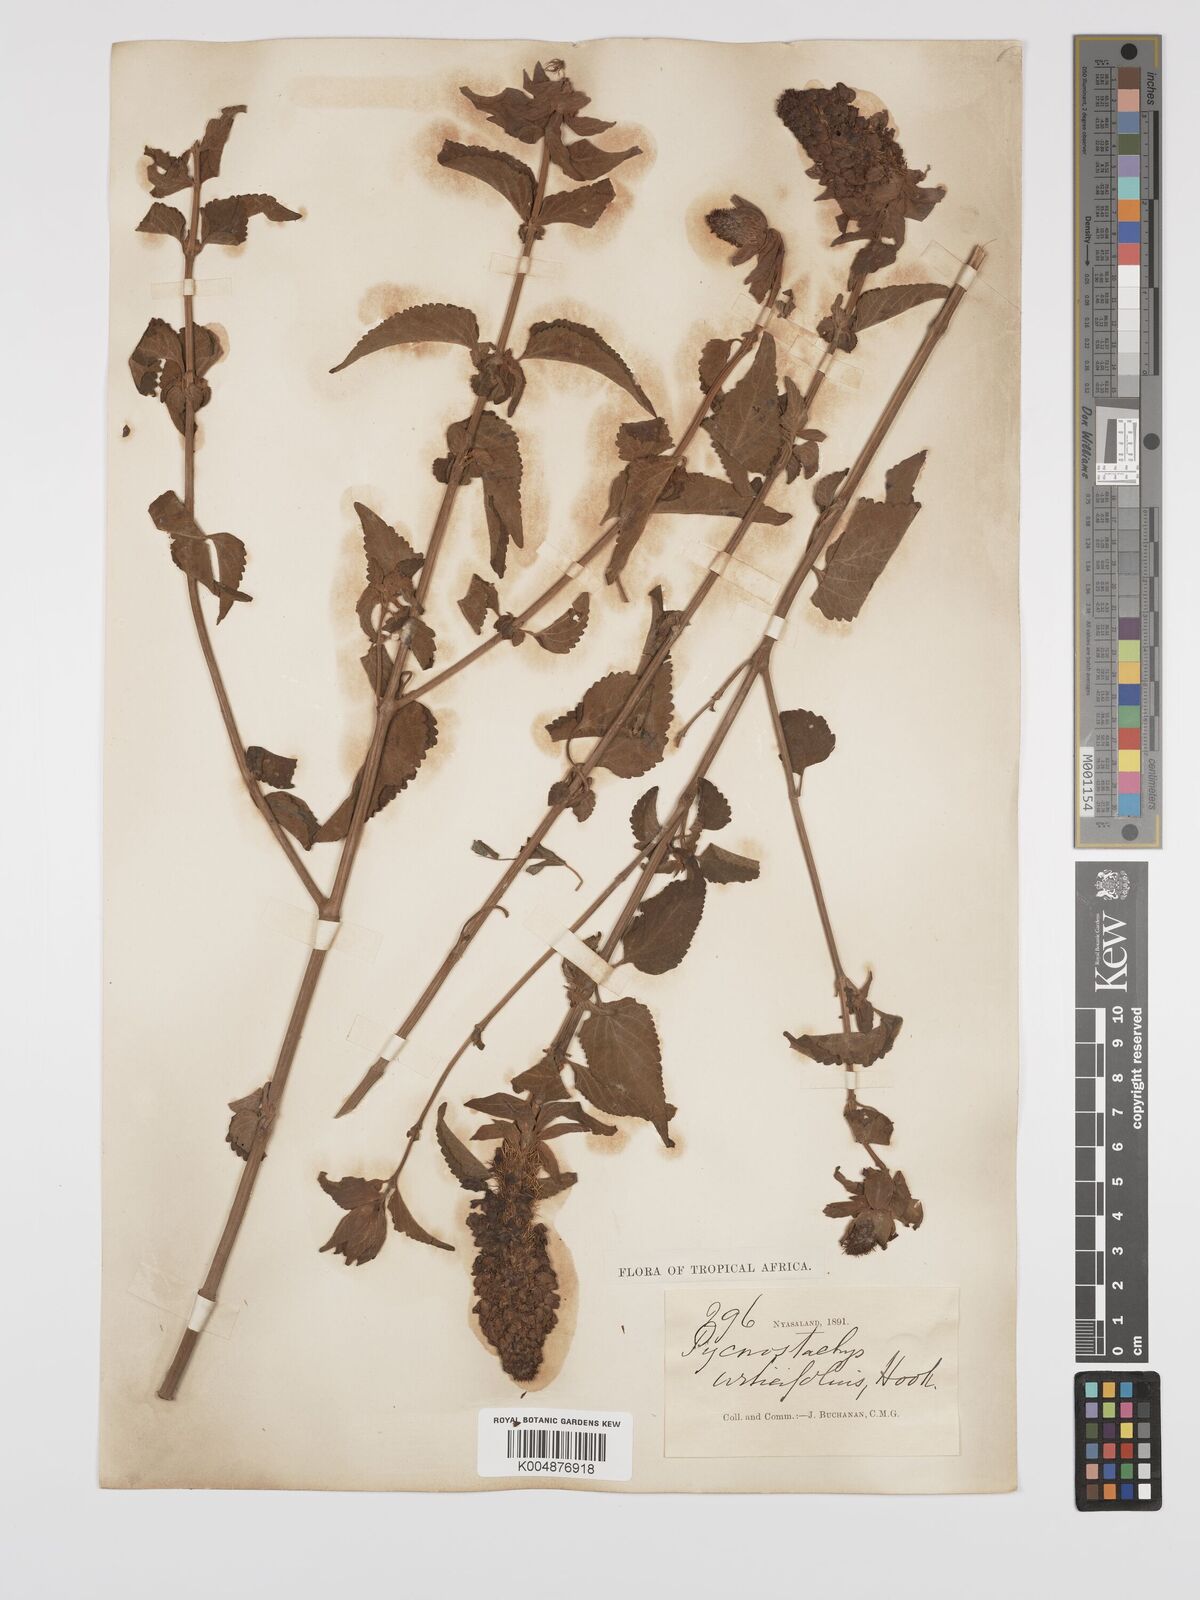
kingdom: Plantae
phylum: Tracheophyta
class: Magnoliopsida
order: Lamiales
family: Lamiaceae
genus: Coleus
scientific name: Coleus livingstonei
